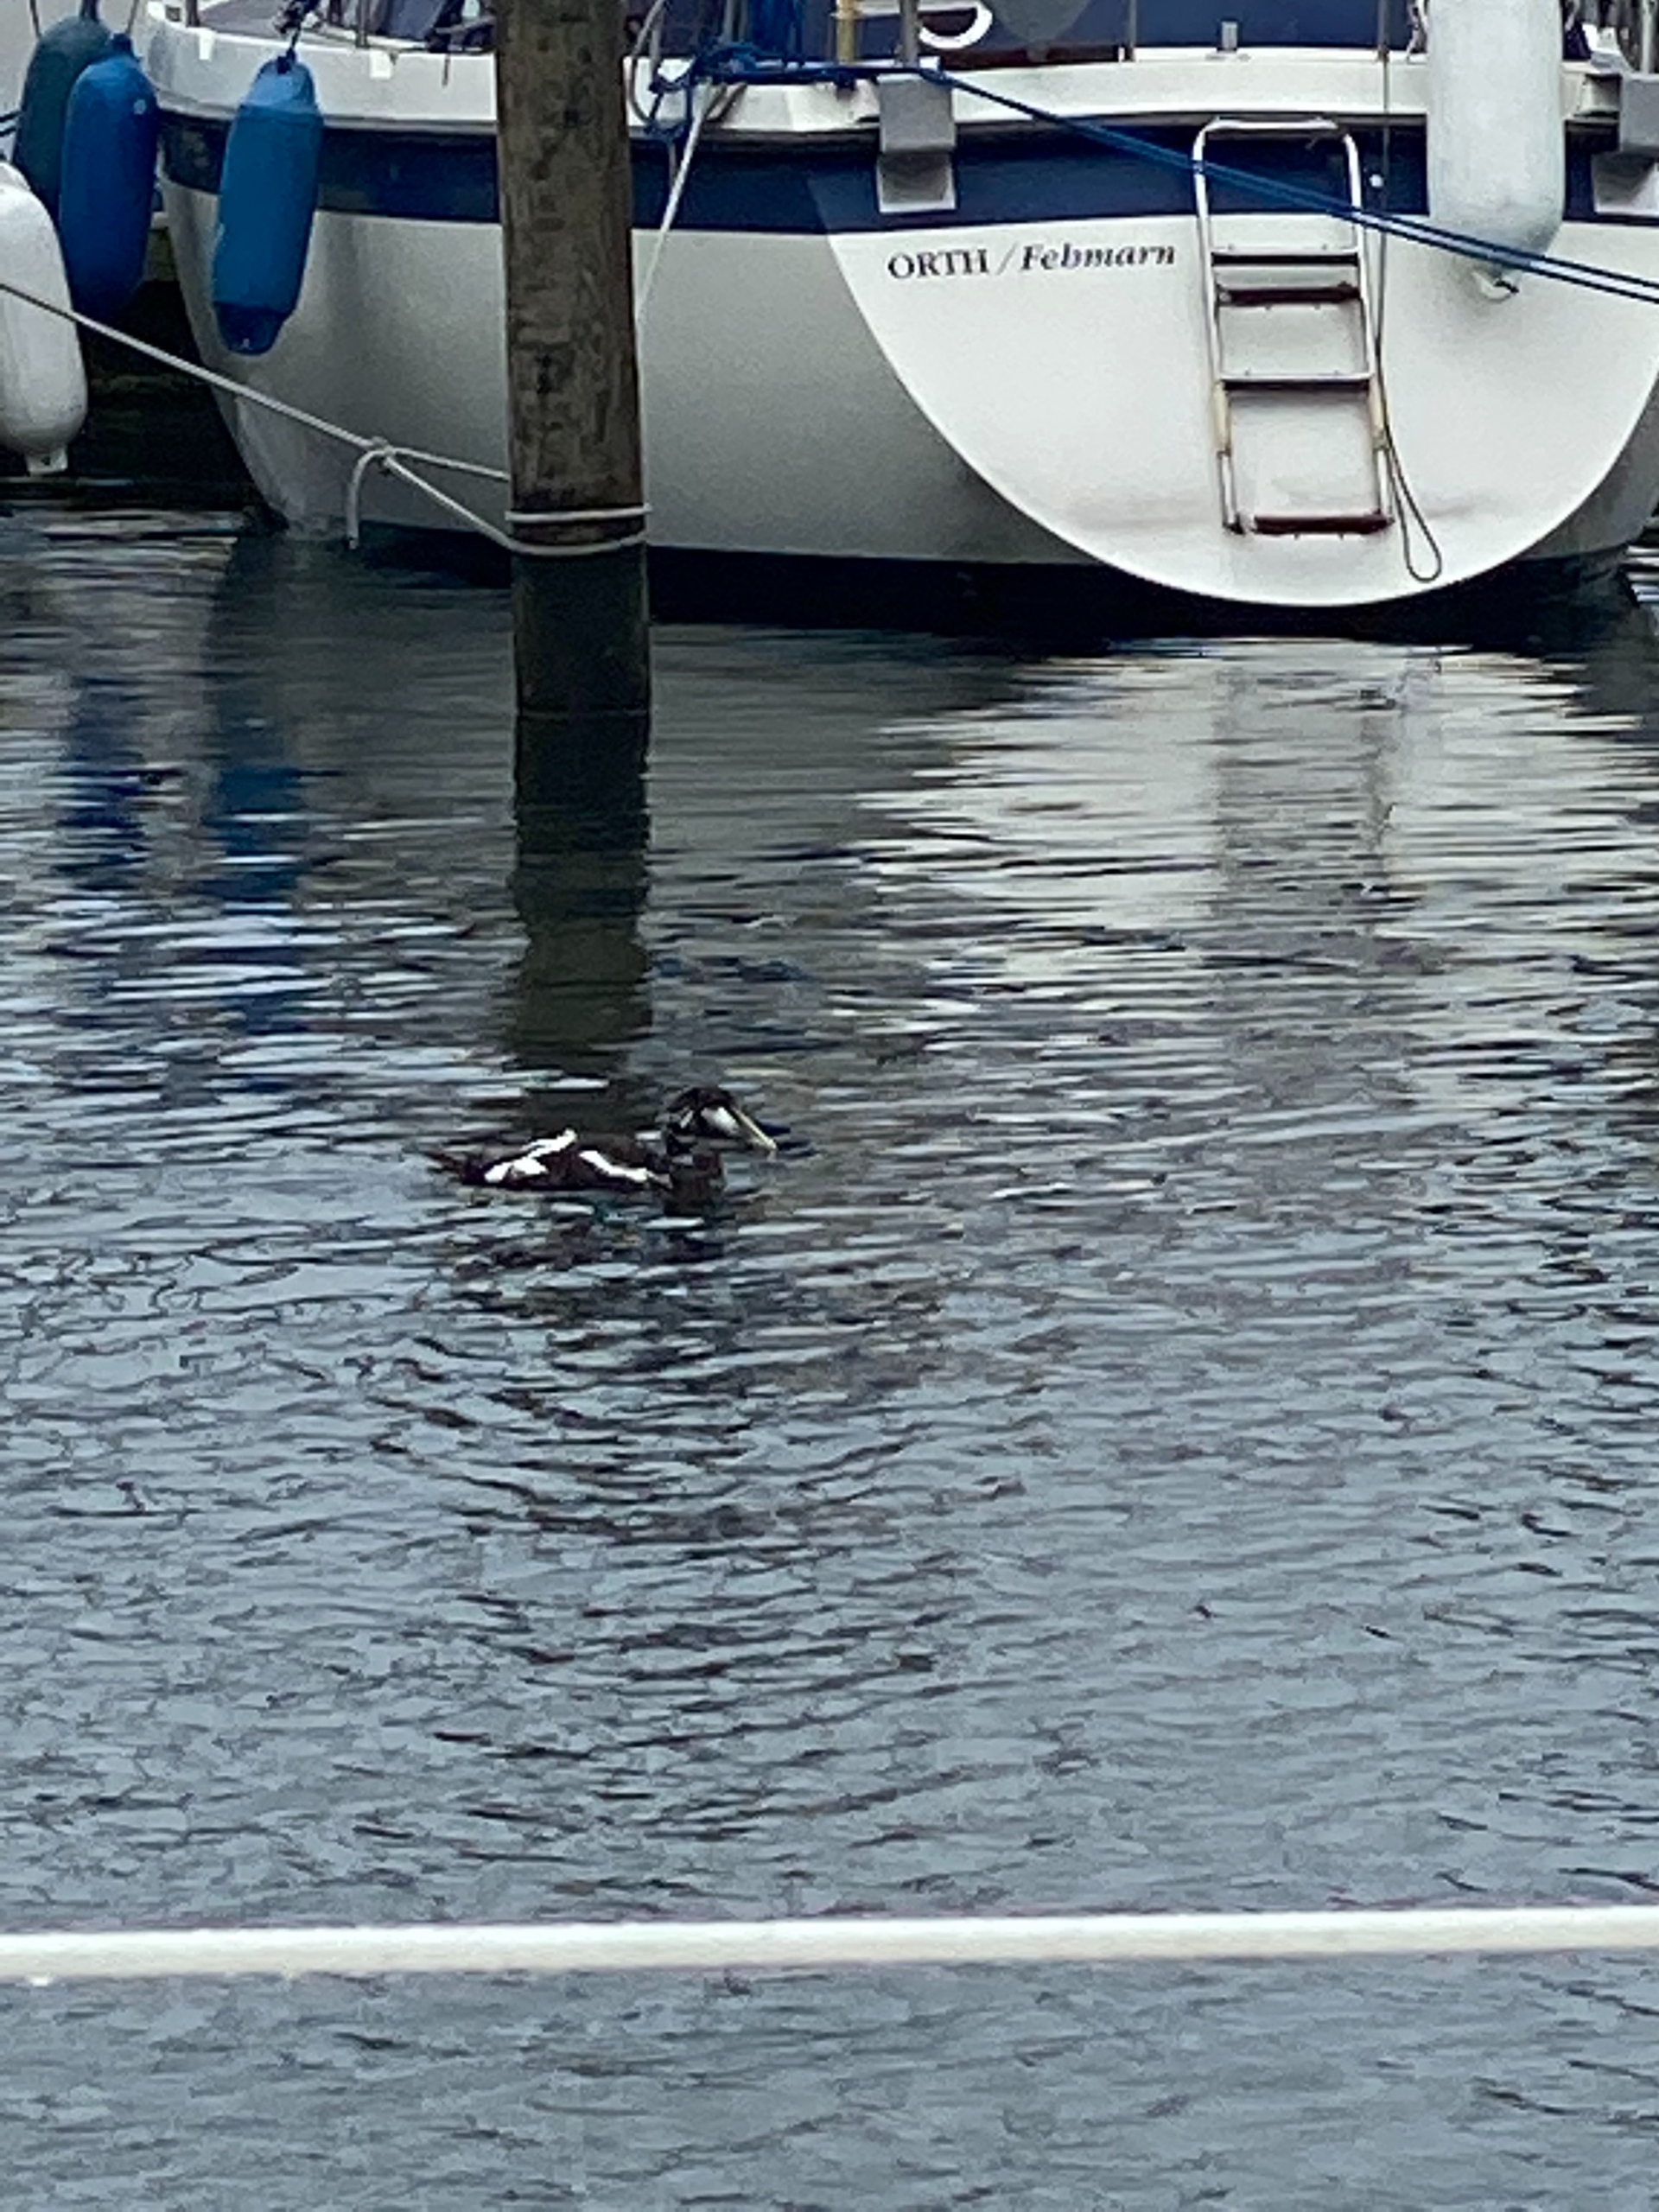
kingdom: Animalia
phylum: Chordata
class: Aves
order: Anseriformes
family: Anatidae
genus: Somateria
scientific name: Somateria mollissima
